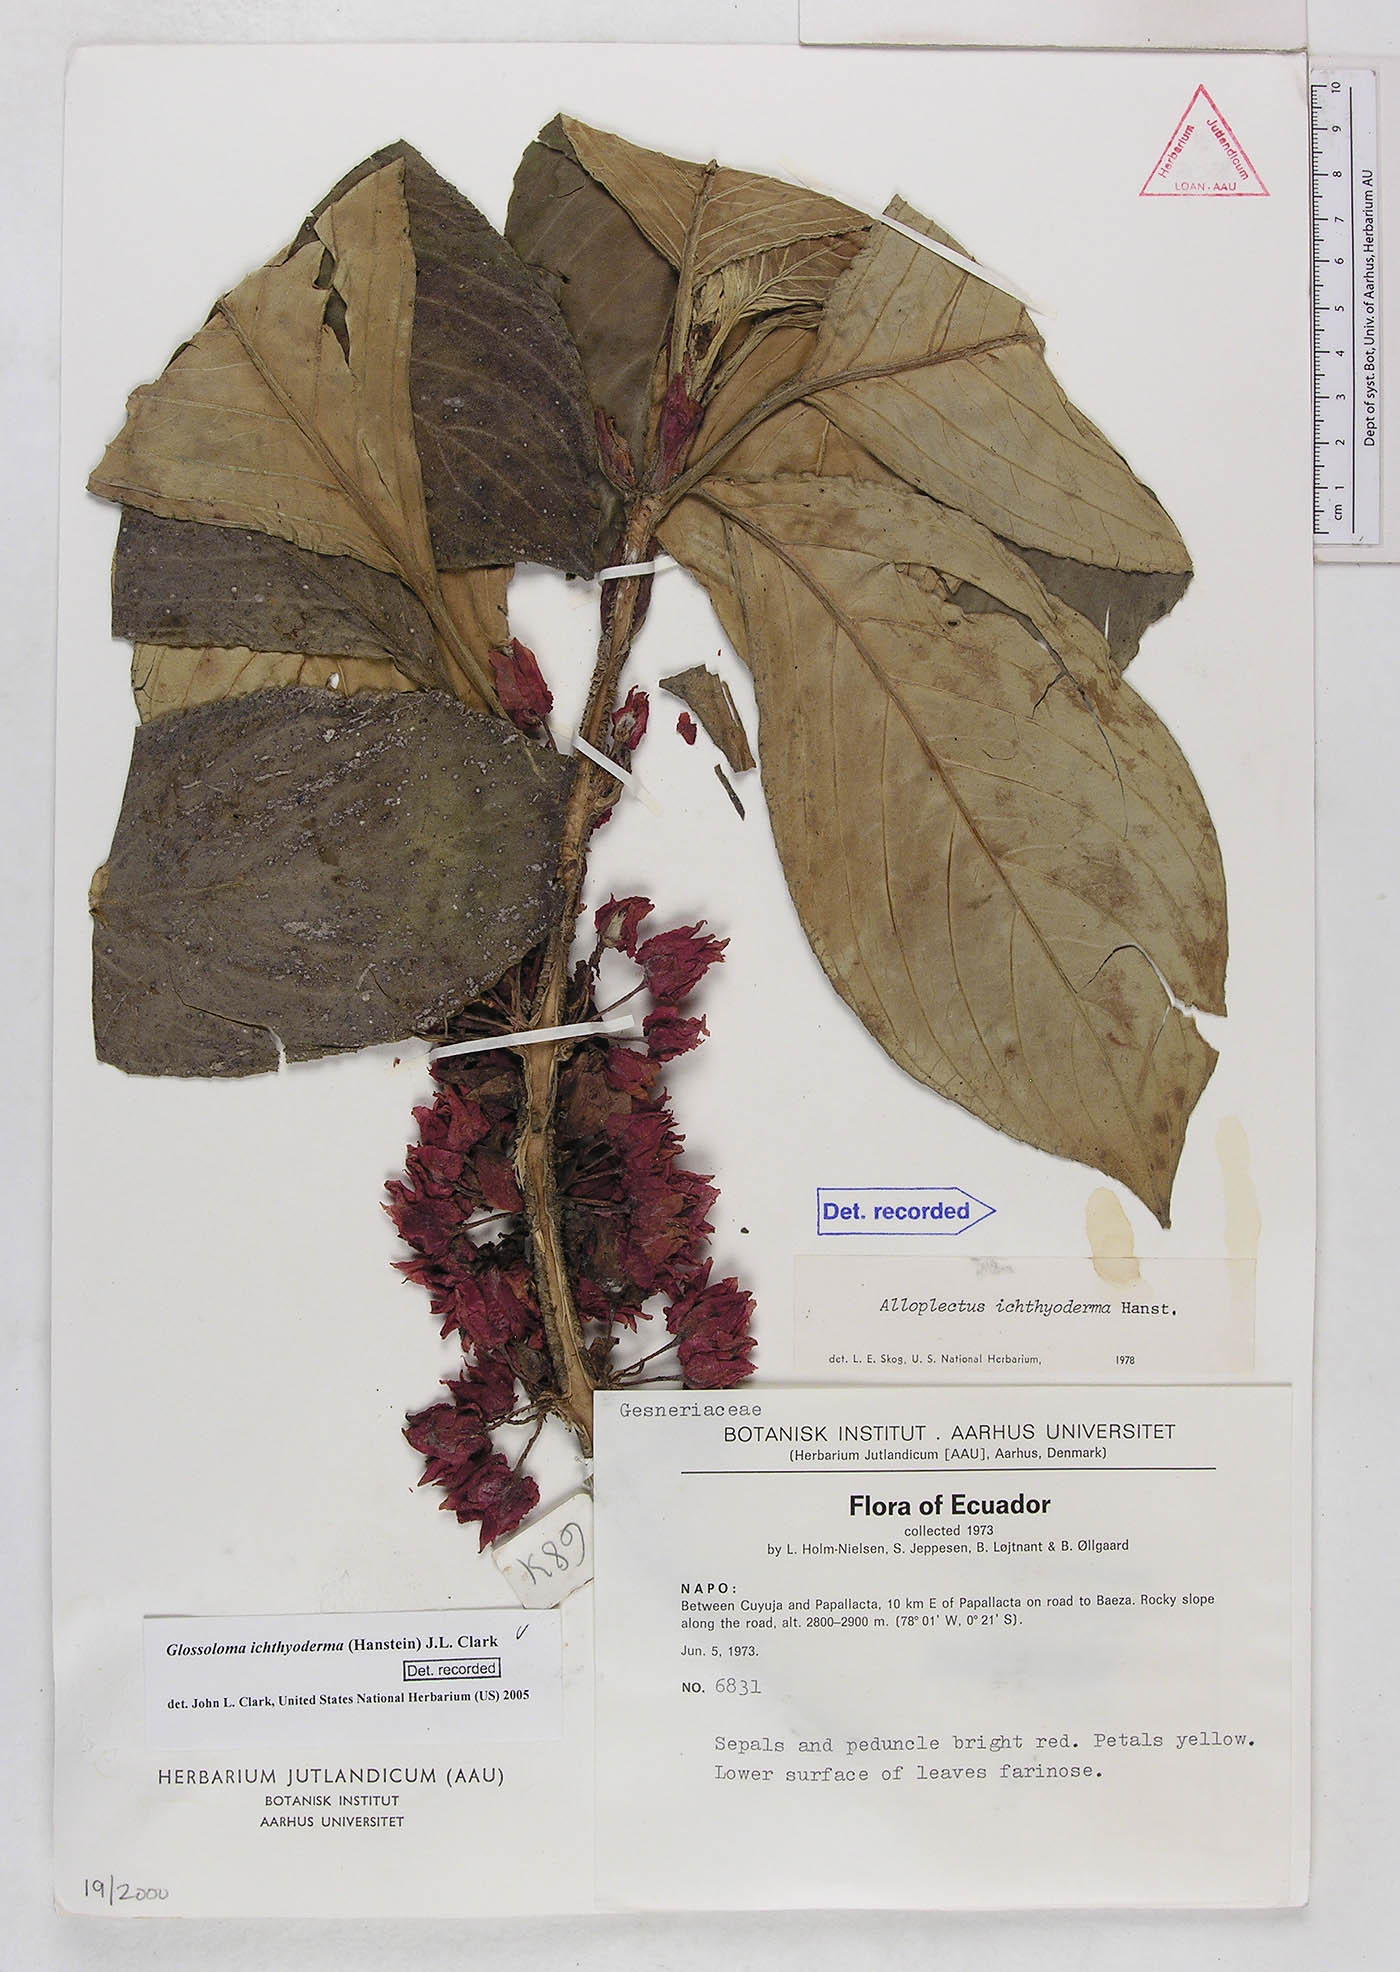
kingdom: Plantae
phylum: Tracheophyta
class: Magnoliopsida
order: Lamiales
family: Gesneriaceae
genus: Glossoloma
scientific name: Glossoloma ichthyoderma
